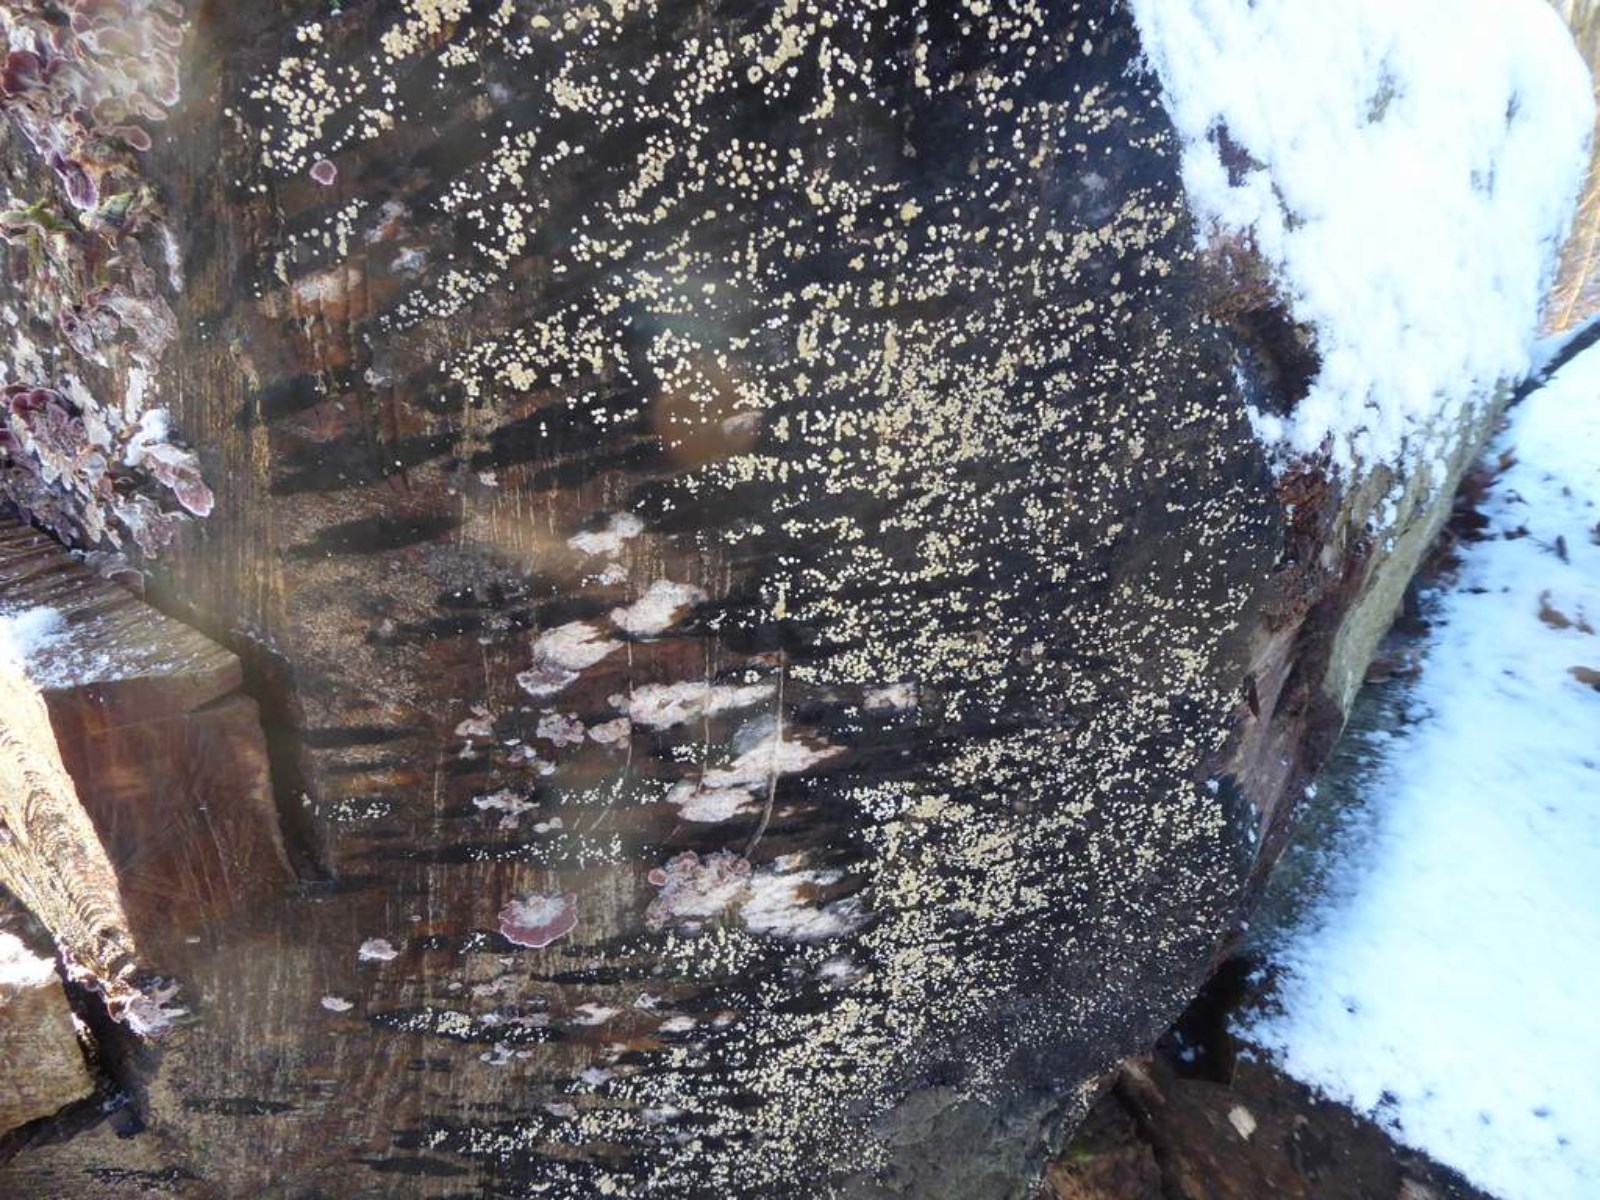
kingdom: Fungi
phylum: Ascomycota
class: Leotiomycetes
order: Helotiales
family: Helotiaceae
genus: Bispora
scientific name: Bispora pallescens
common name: måtte-snitskive
